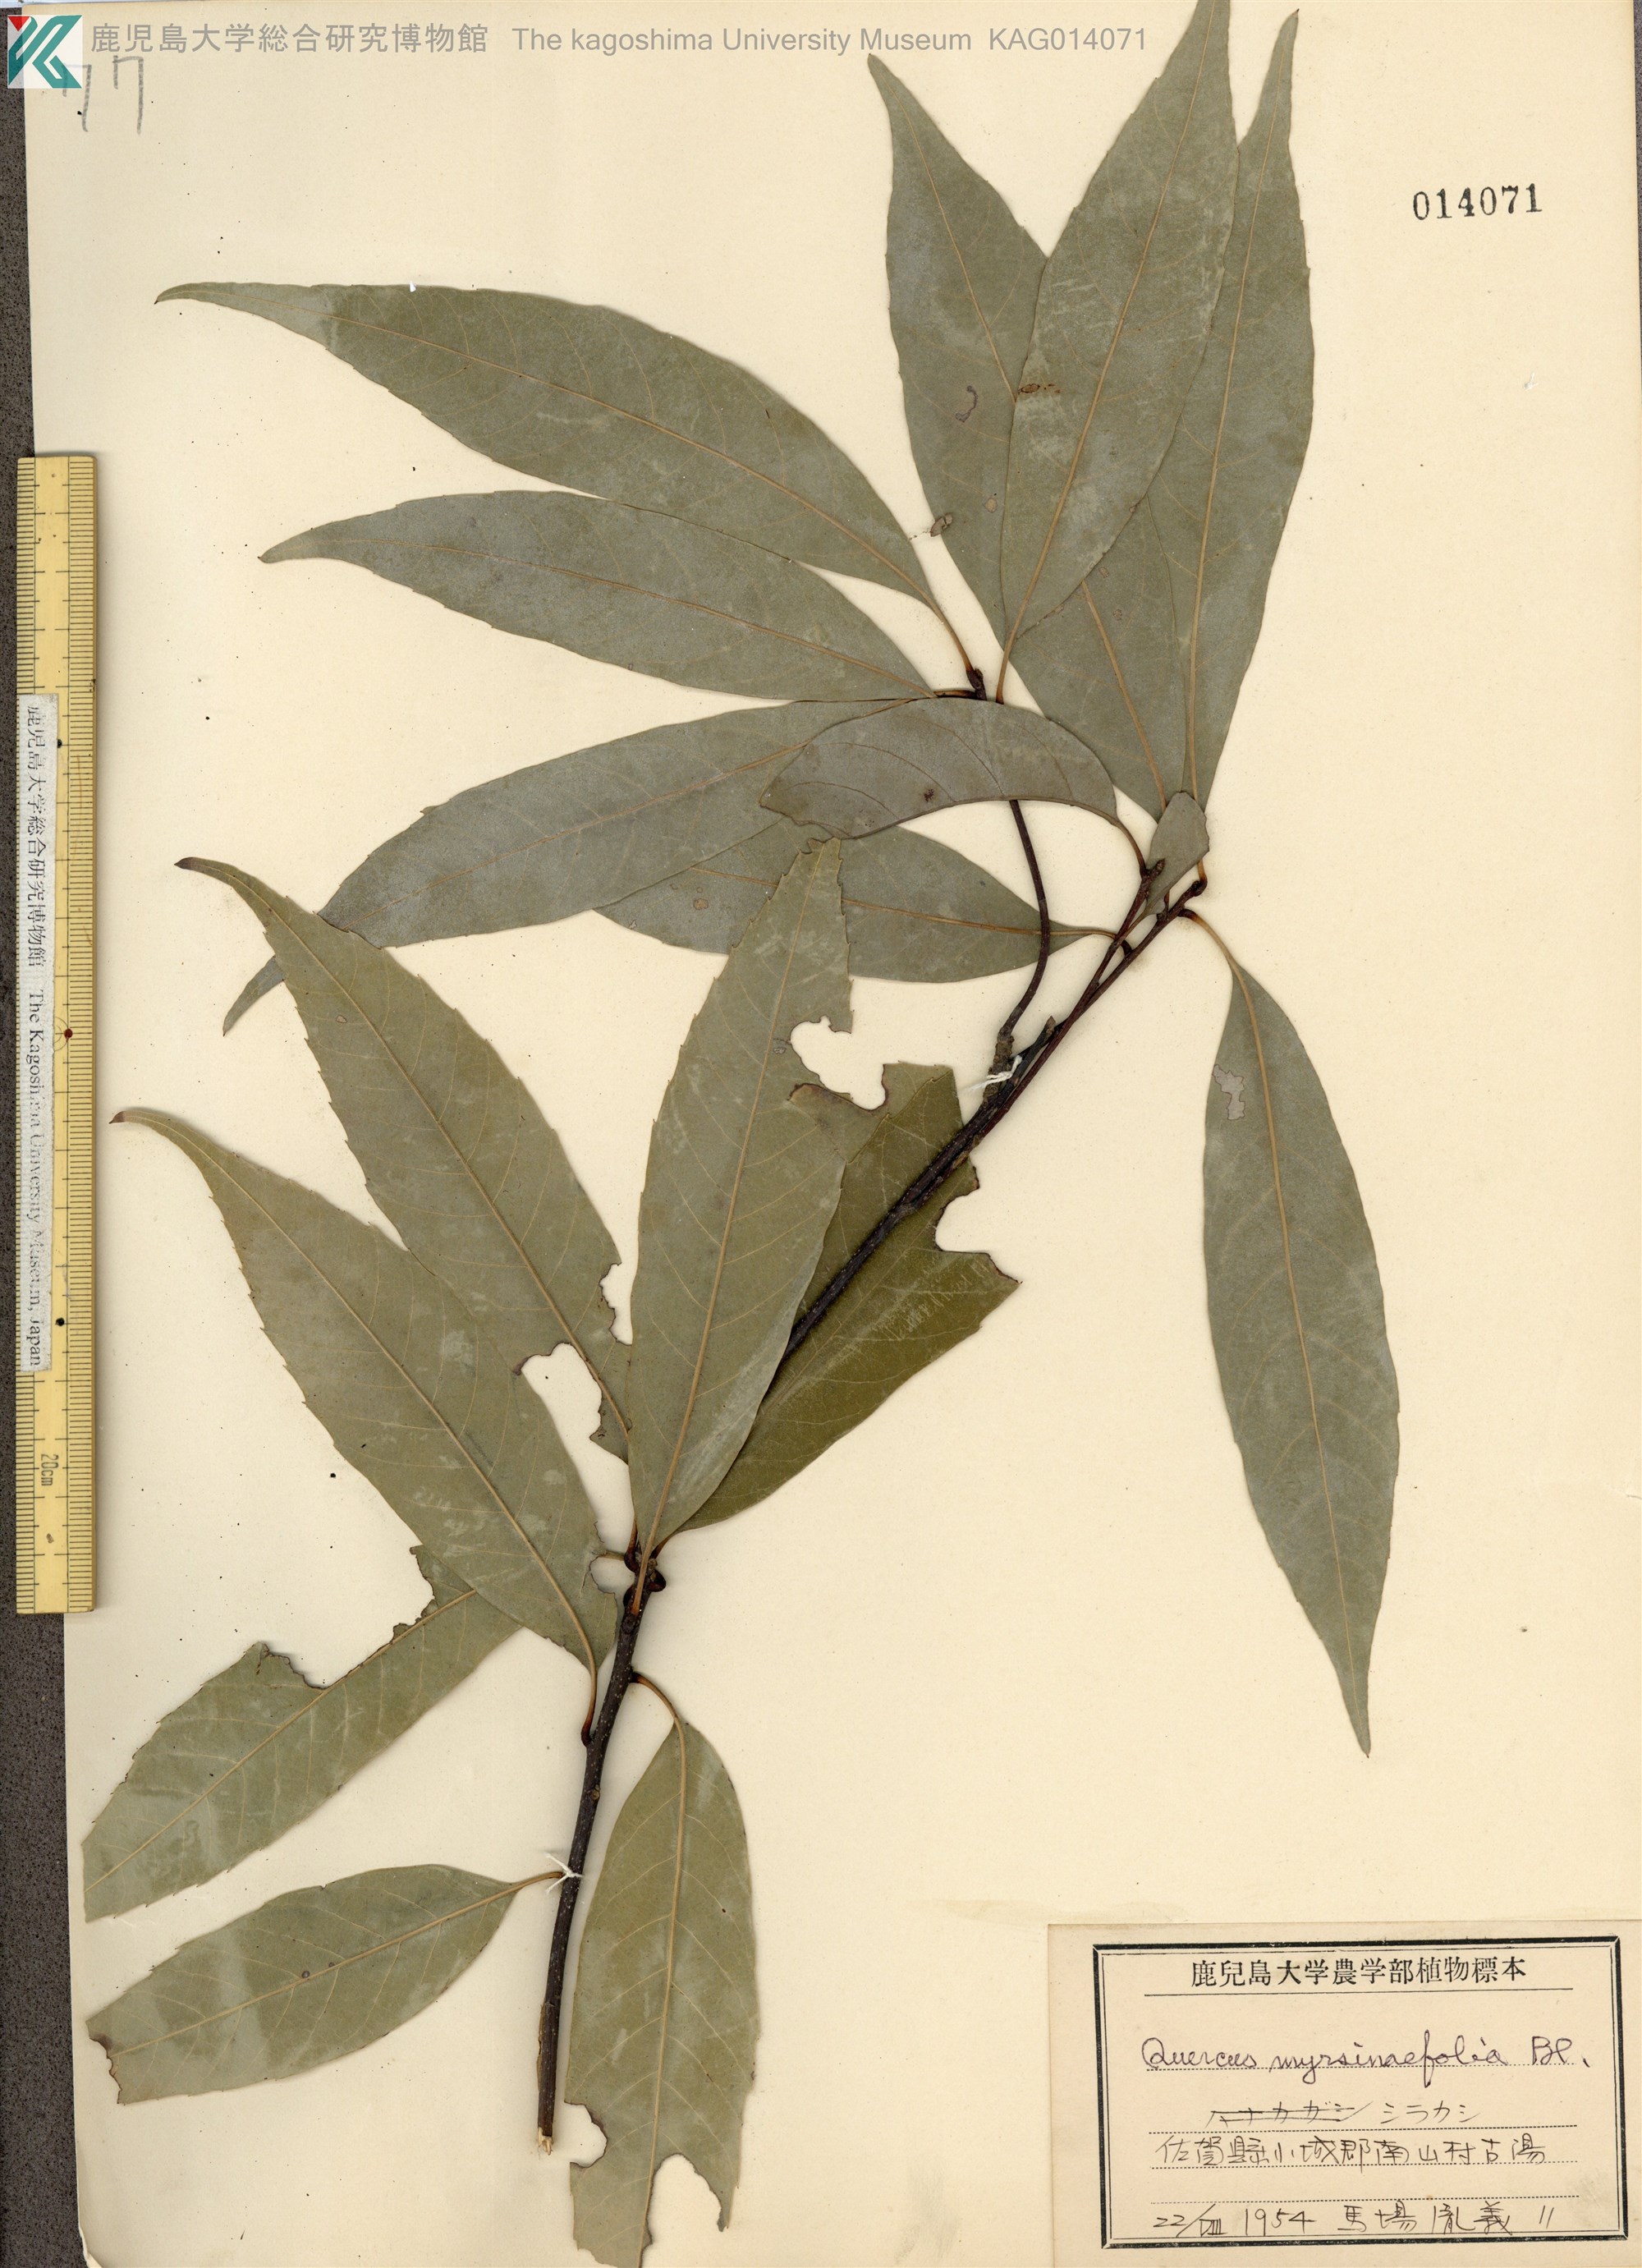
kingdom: Plantae
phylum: Tracheophyta
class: Magnoliopsida
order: Fagales
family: Fagaceae
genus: Quercus
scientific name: Quercus myrsinaefolia
